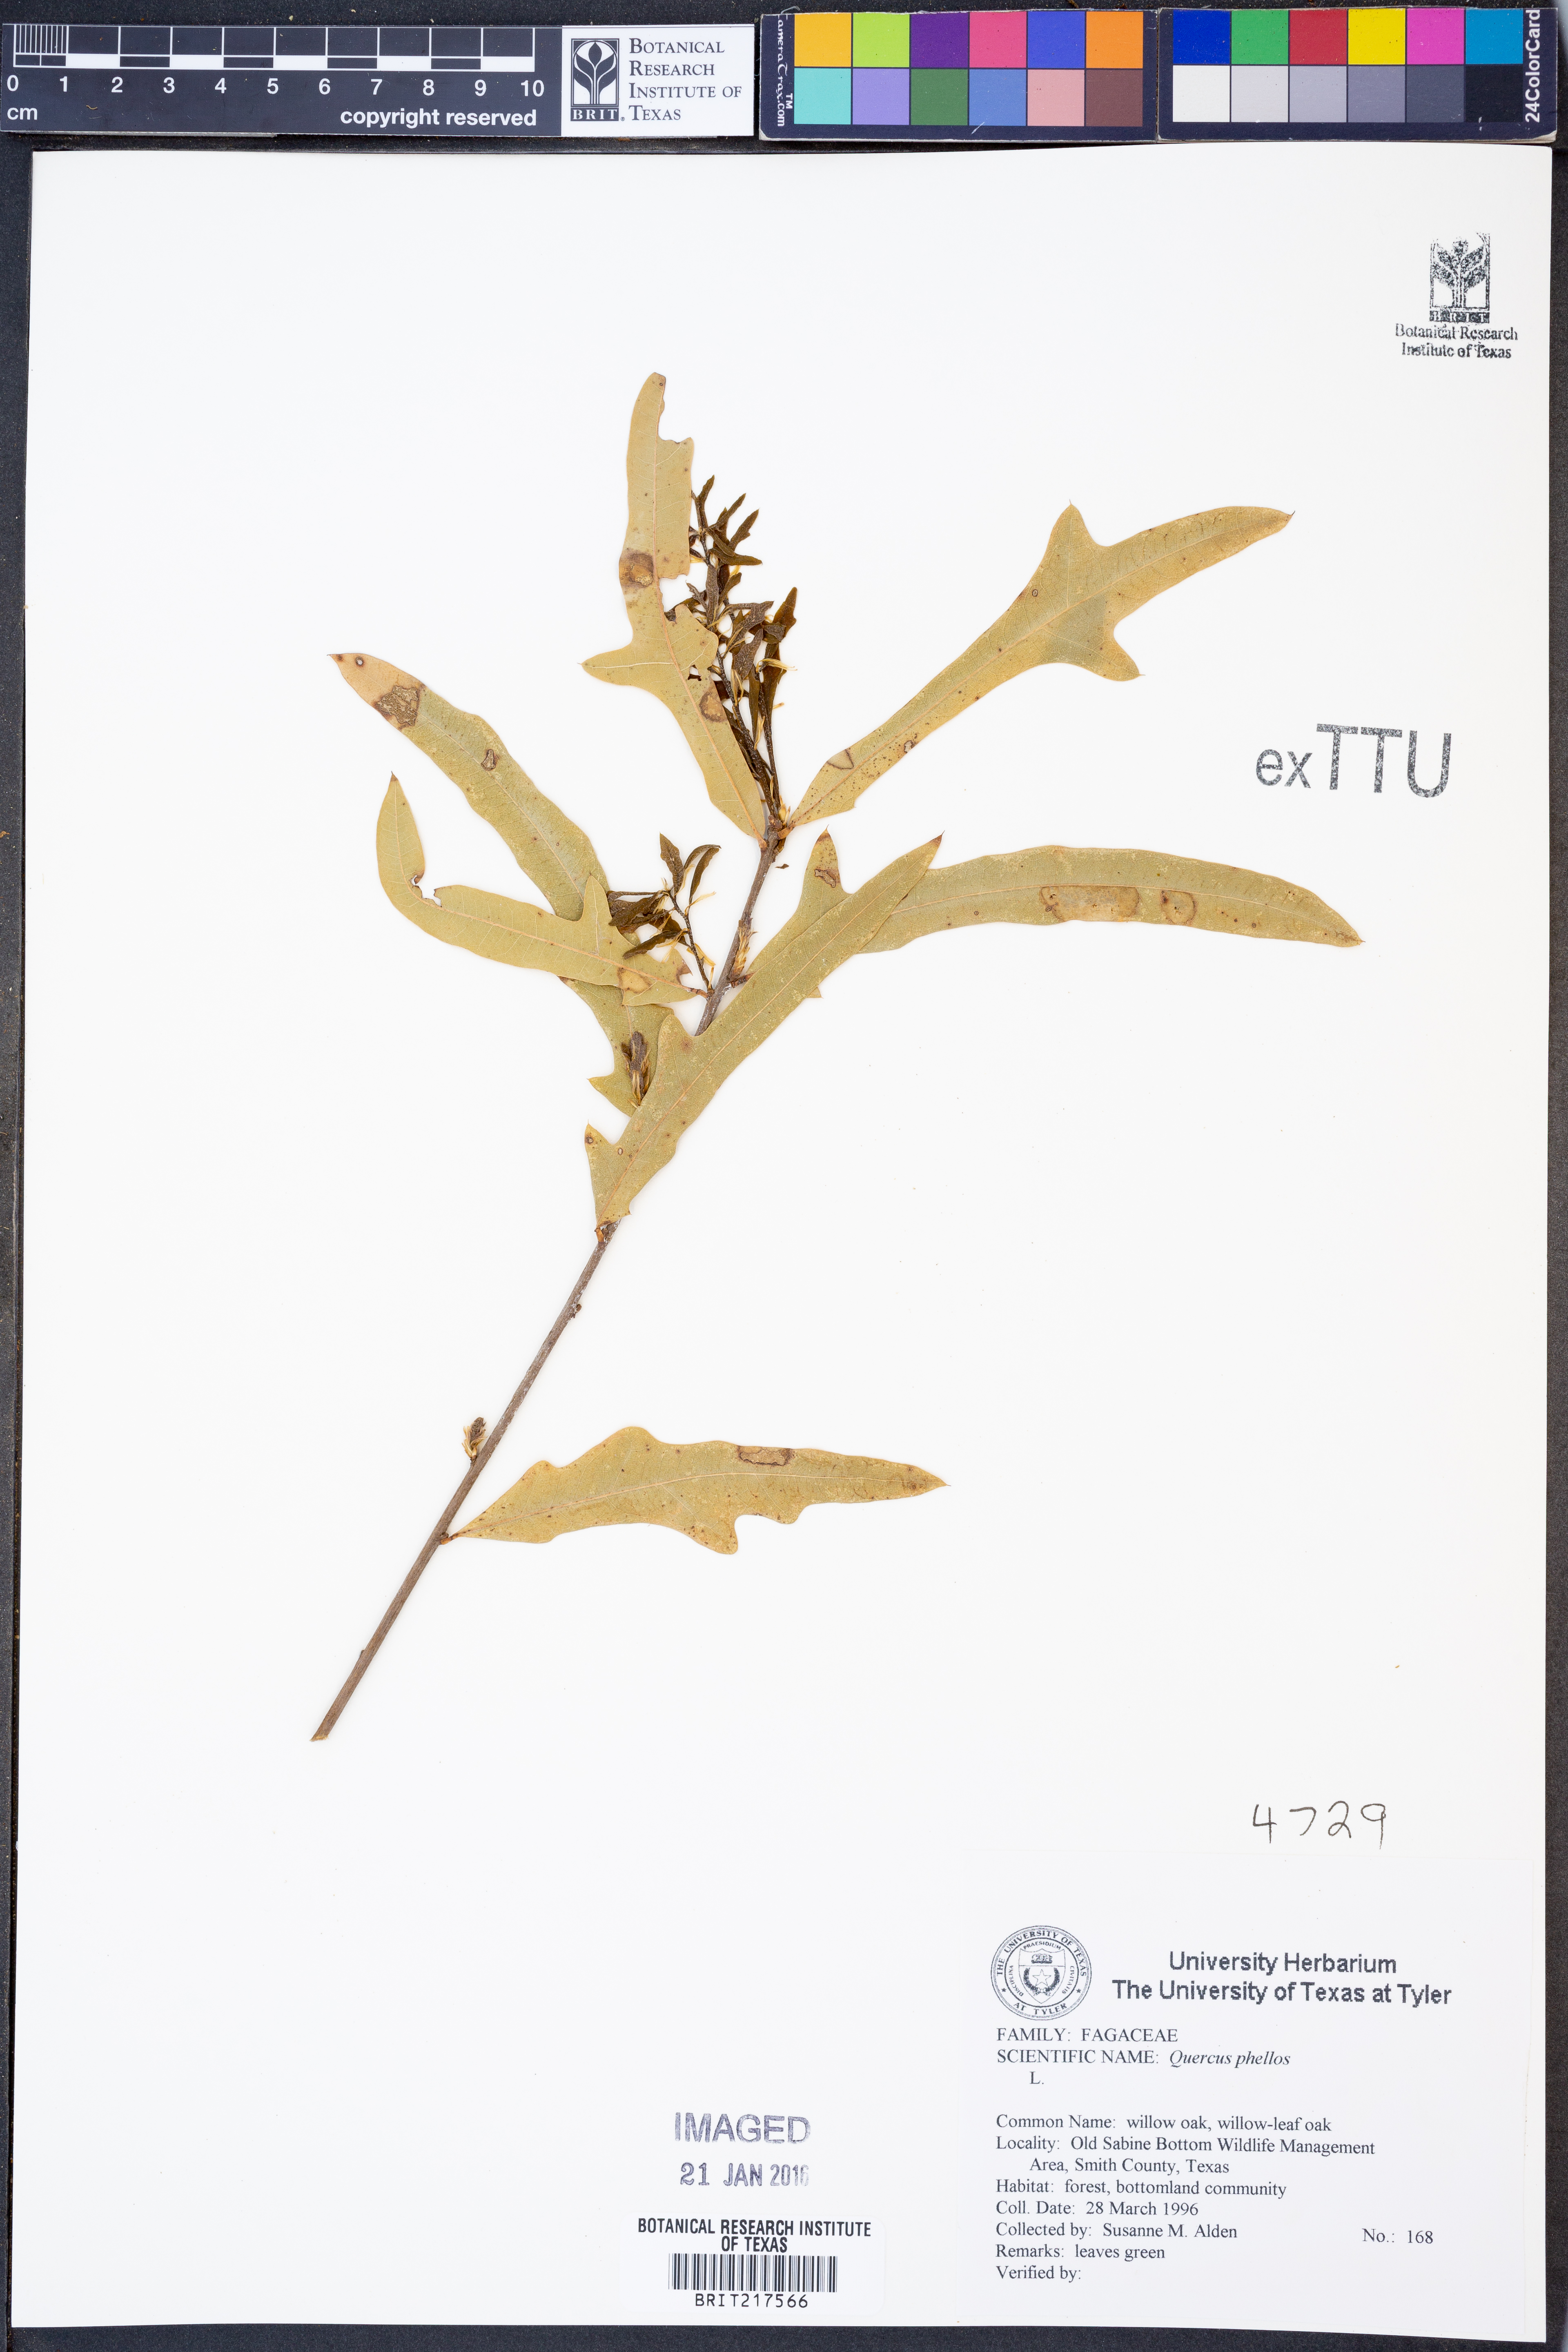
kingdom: Plantae
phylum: Tracheophyta
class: Magnoliopsida
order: Fagales
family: Fagaceae
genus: Quercus
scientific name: Quercus phellos
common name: Willow oak
